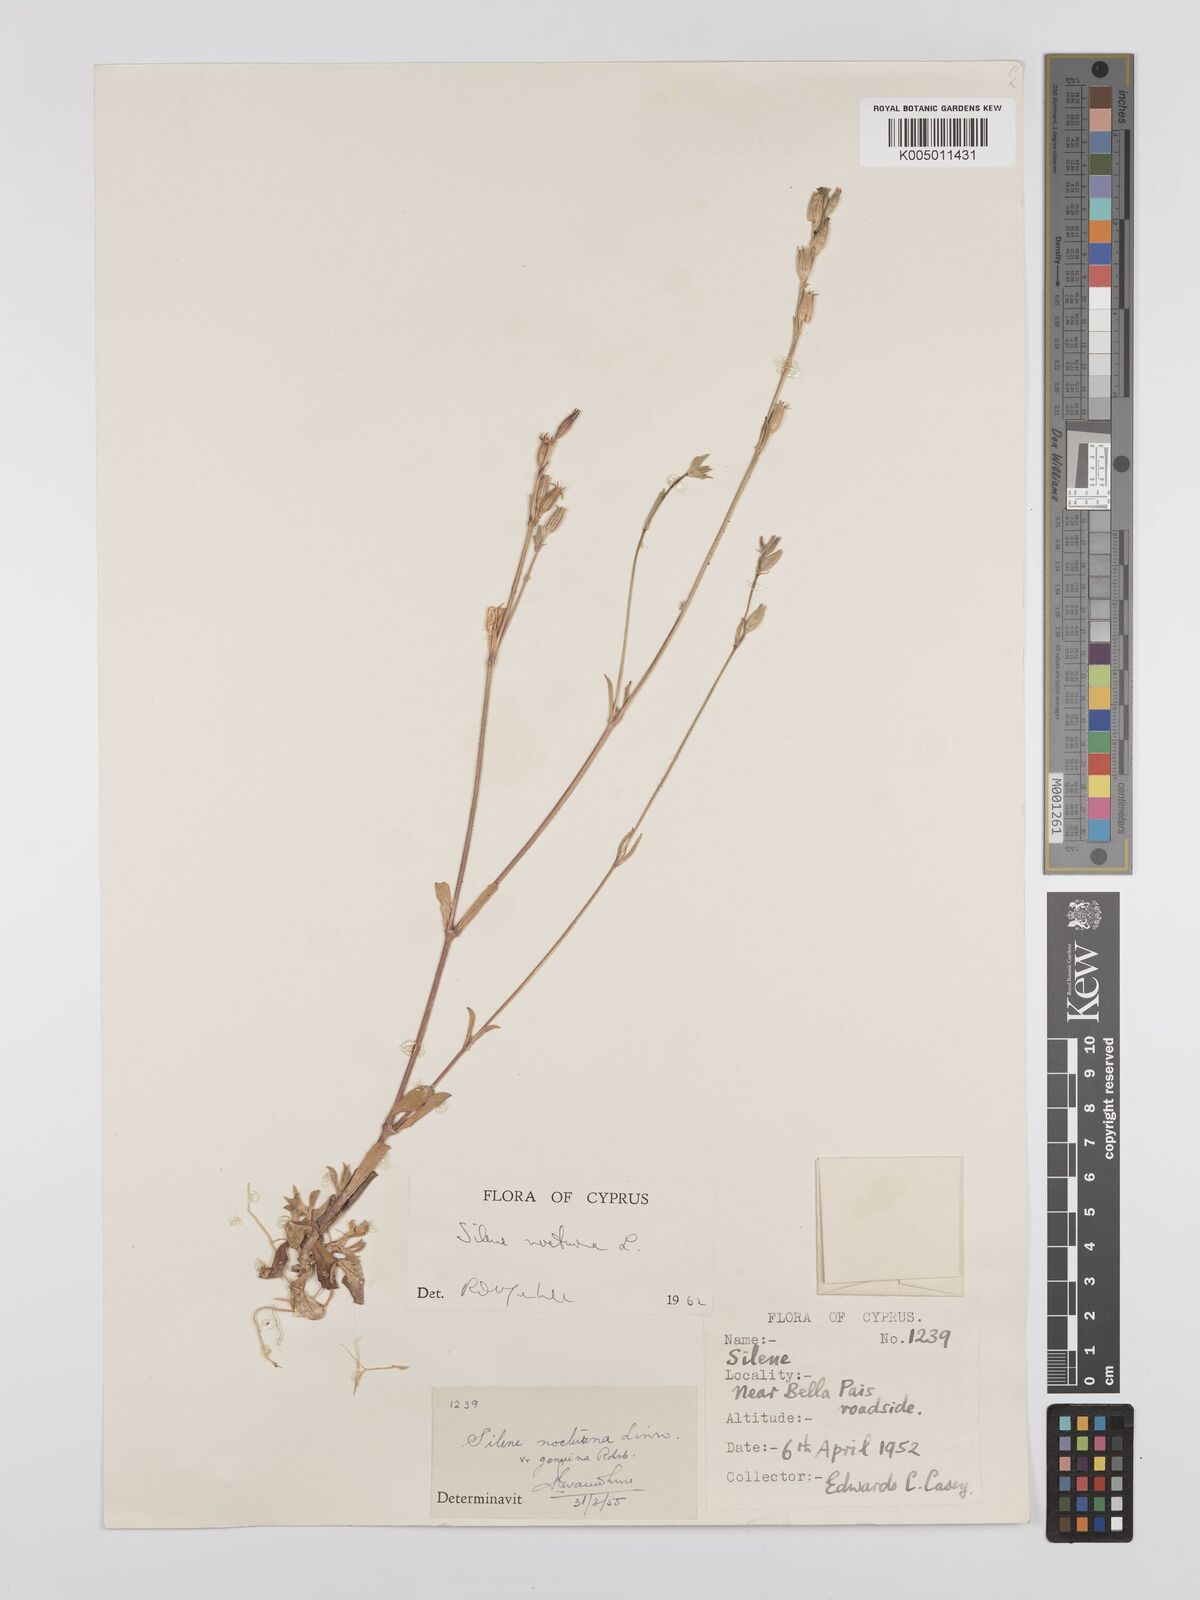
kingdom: Plantae
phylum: Tracheophyta
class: Magnoliopsida
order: Caryophyllales
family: Caryophyllaceae
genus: Silene
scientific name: Silene nocturna
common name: Mediterranean catchfly
